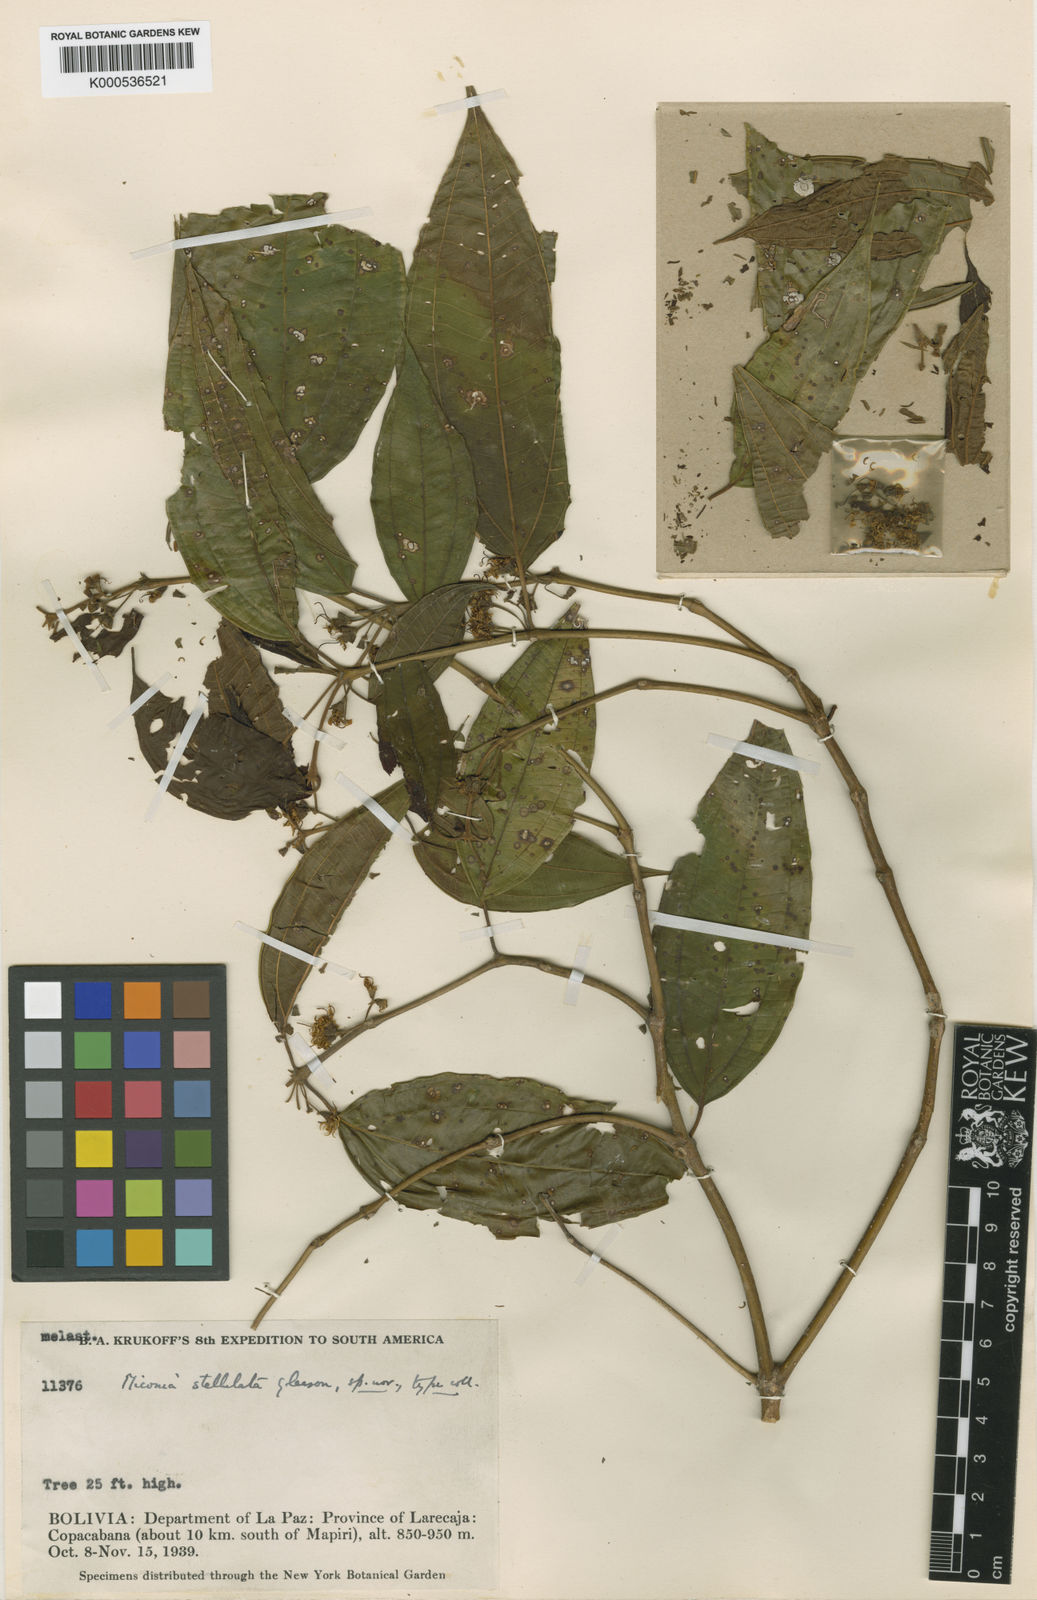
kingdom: Plantae
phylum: Tracheophyta
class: Magnoliopsida
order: Myrtales
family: Melastomataceae
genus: Miconia
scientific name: Miconia stellulata
